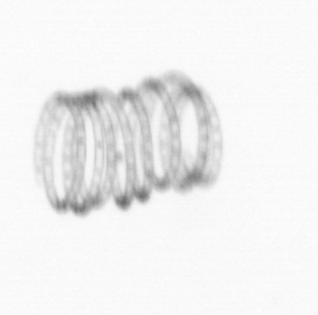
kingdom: Chromista
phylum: Ochrophyta
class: Bacillariophyceae
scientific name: Bacillariophyceae
